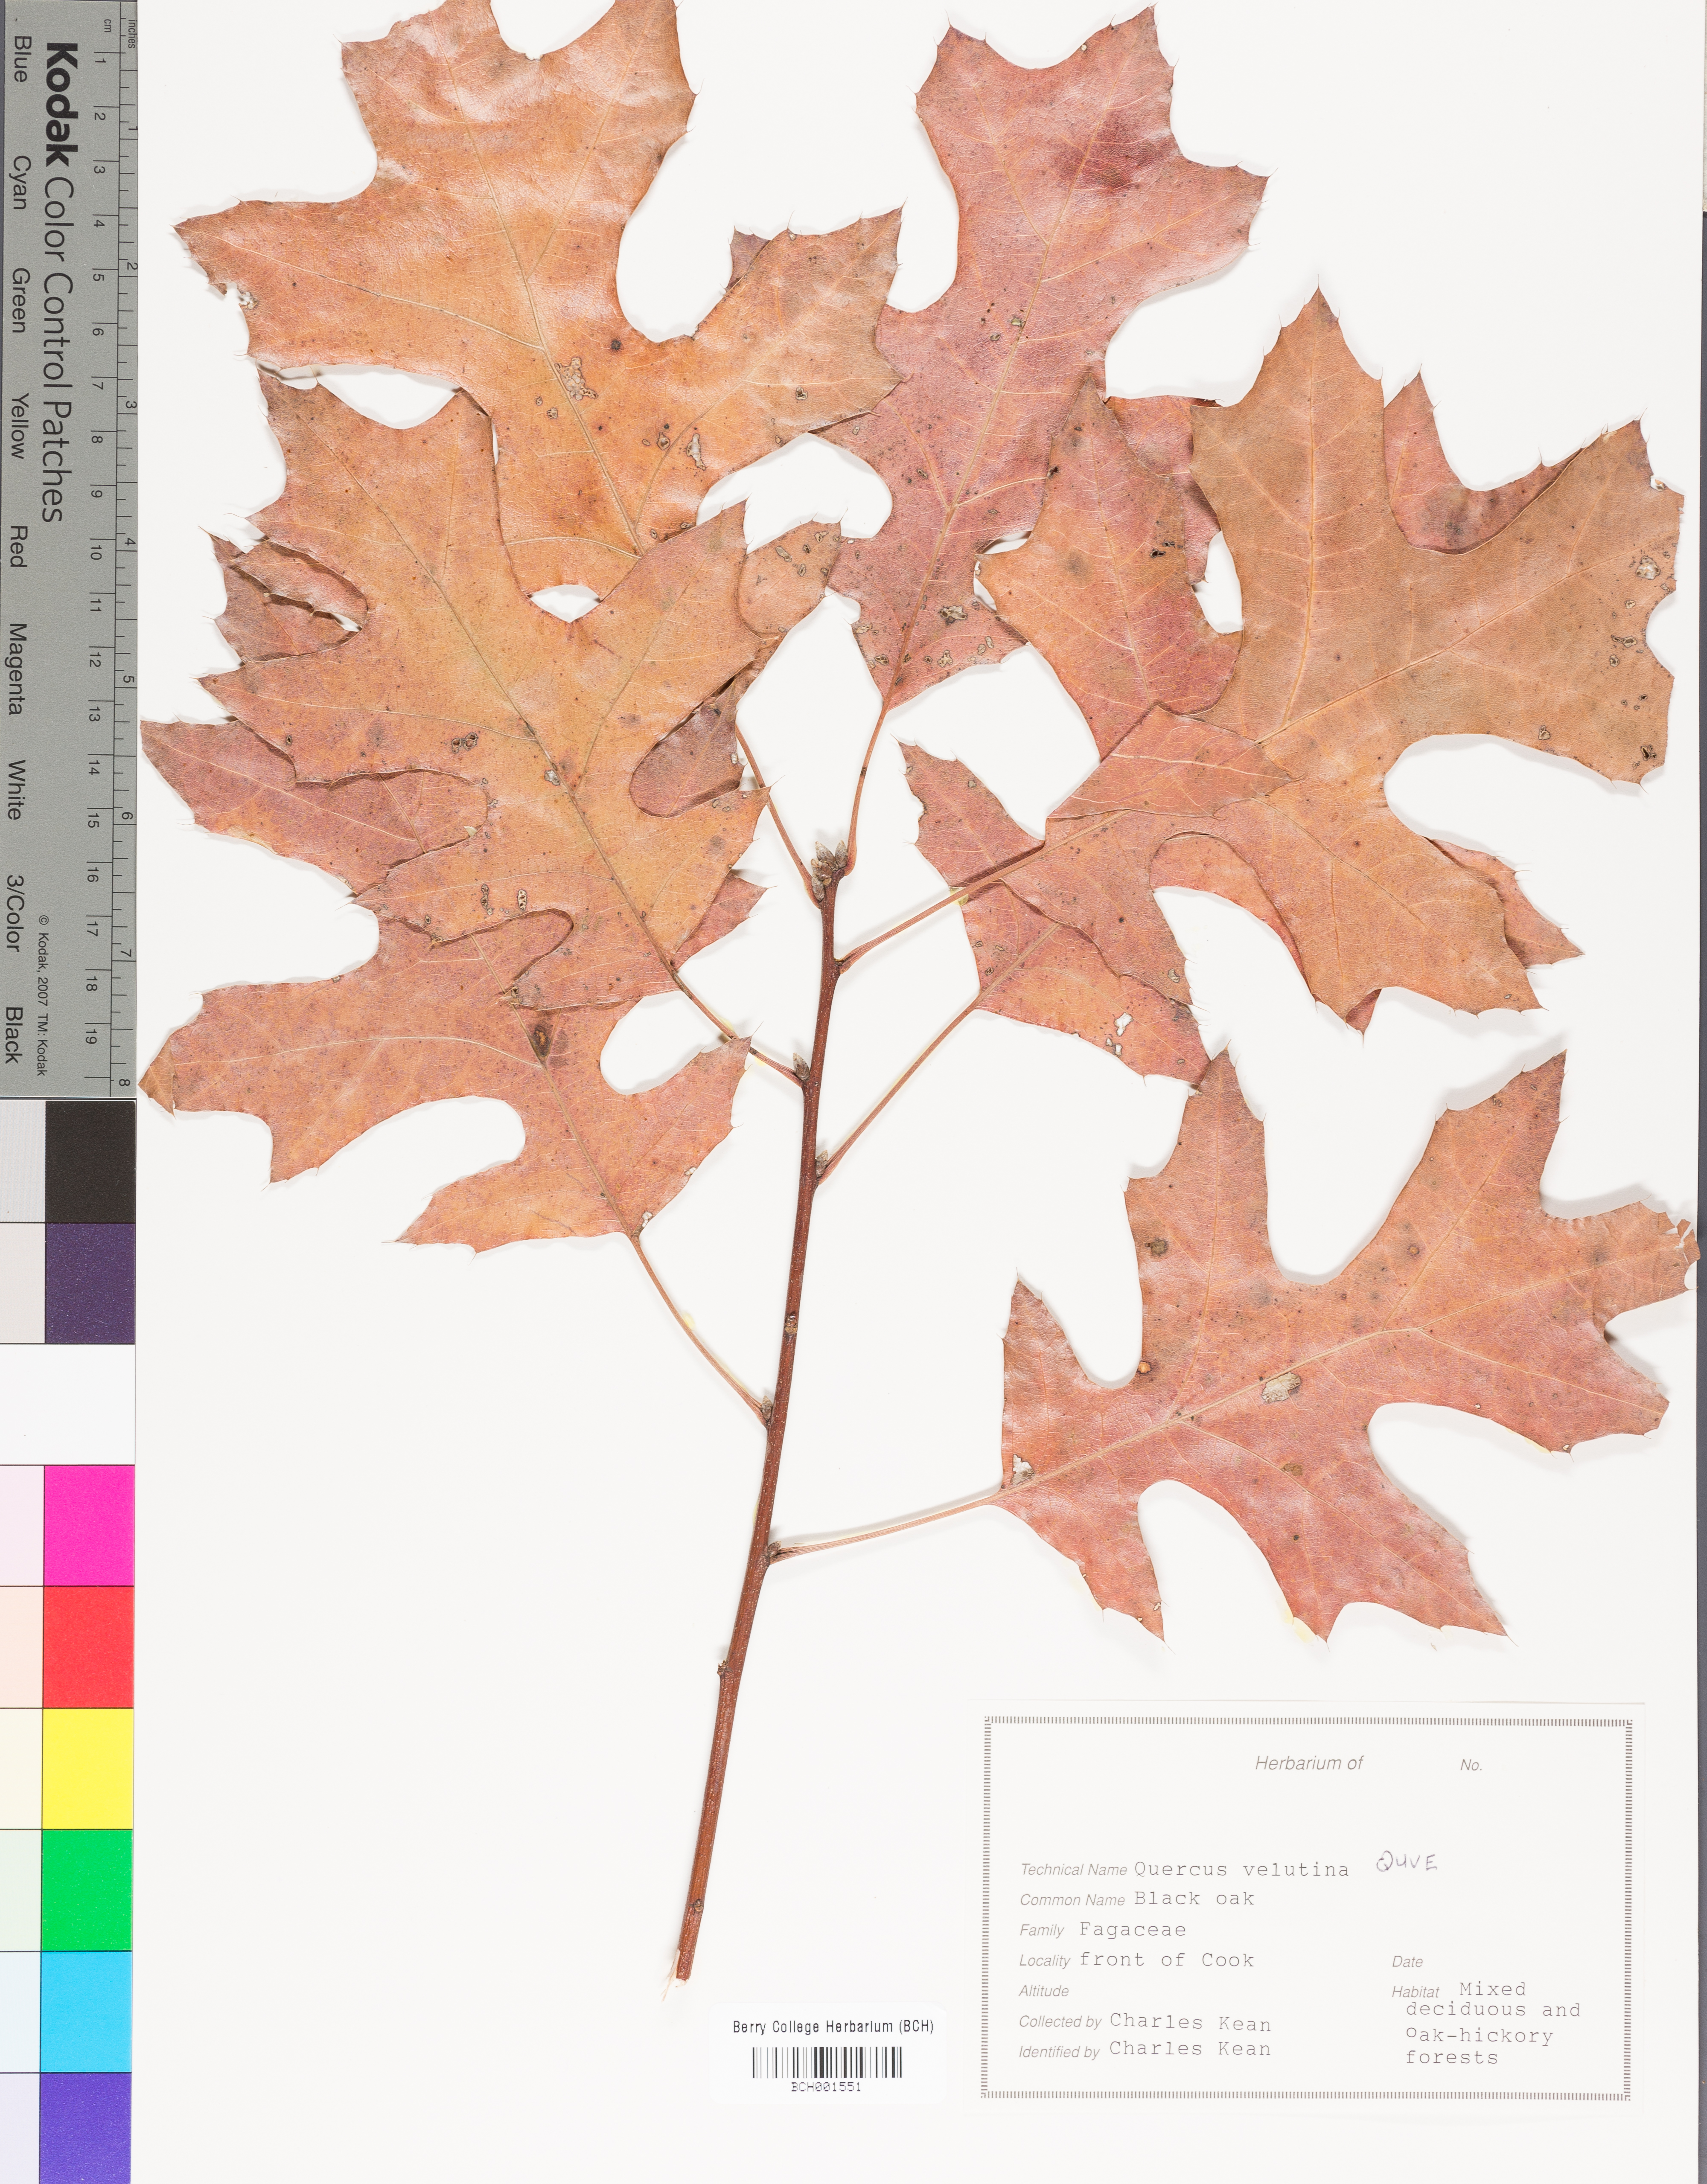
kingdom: Plantae
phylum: Tracheophyta
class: Magnoliopsida
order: Fagales
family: Fagaceae
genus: Quercus
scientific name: Quercus velutina
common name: Black oak
